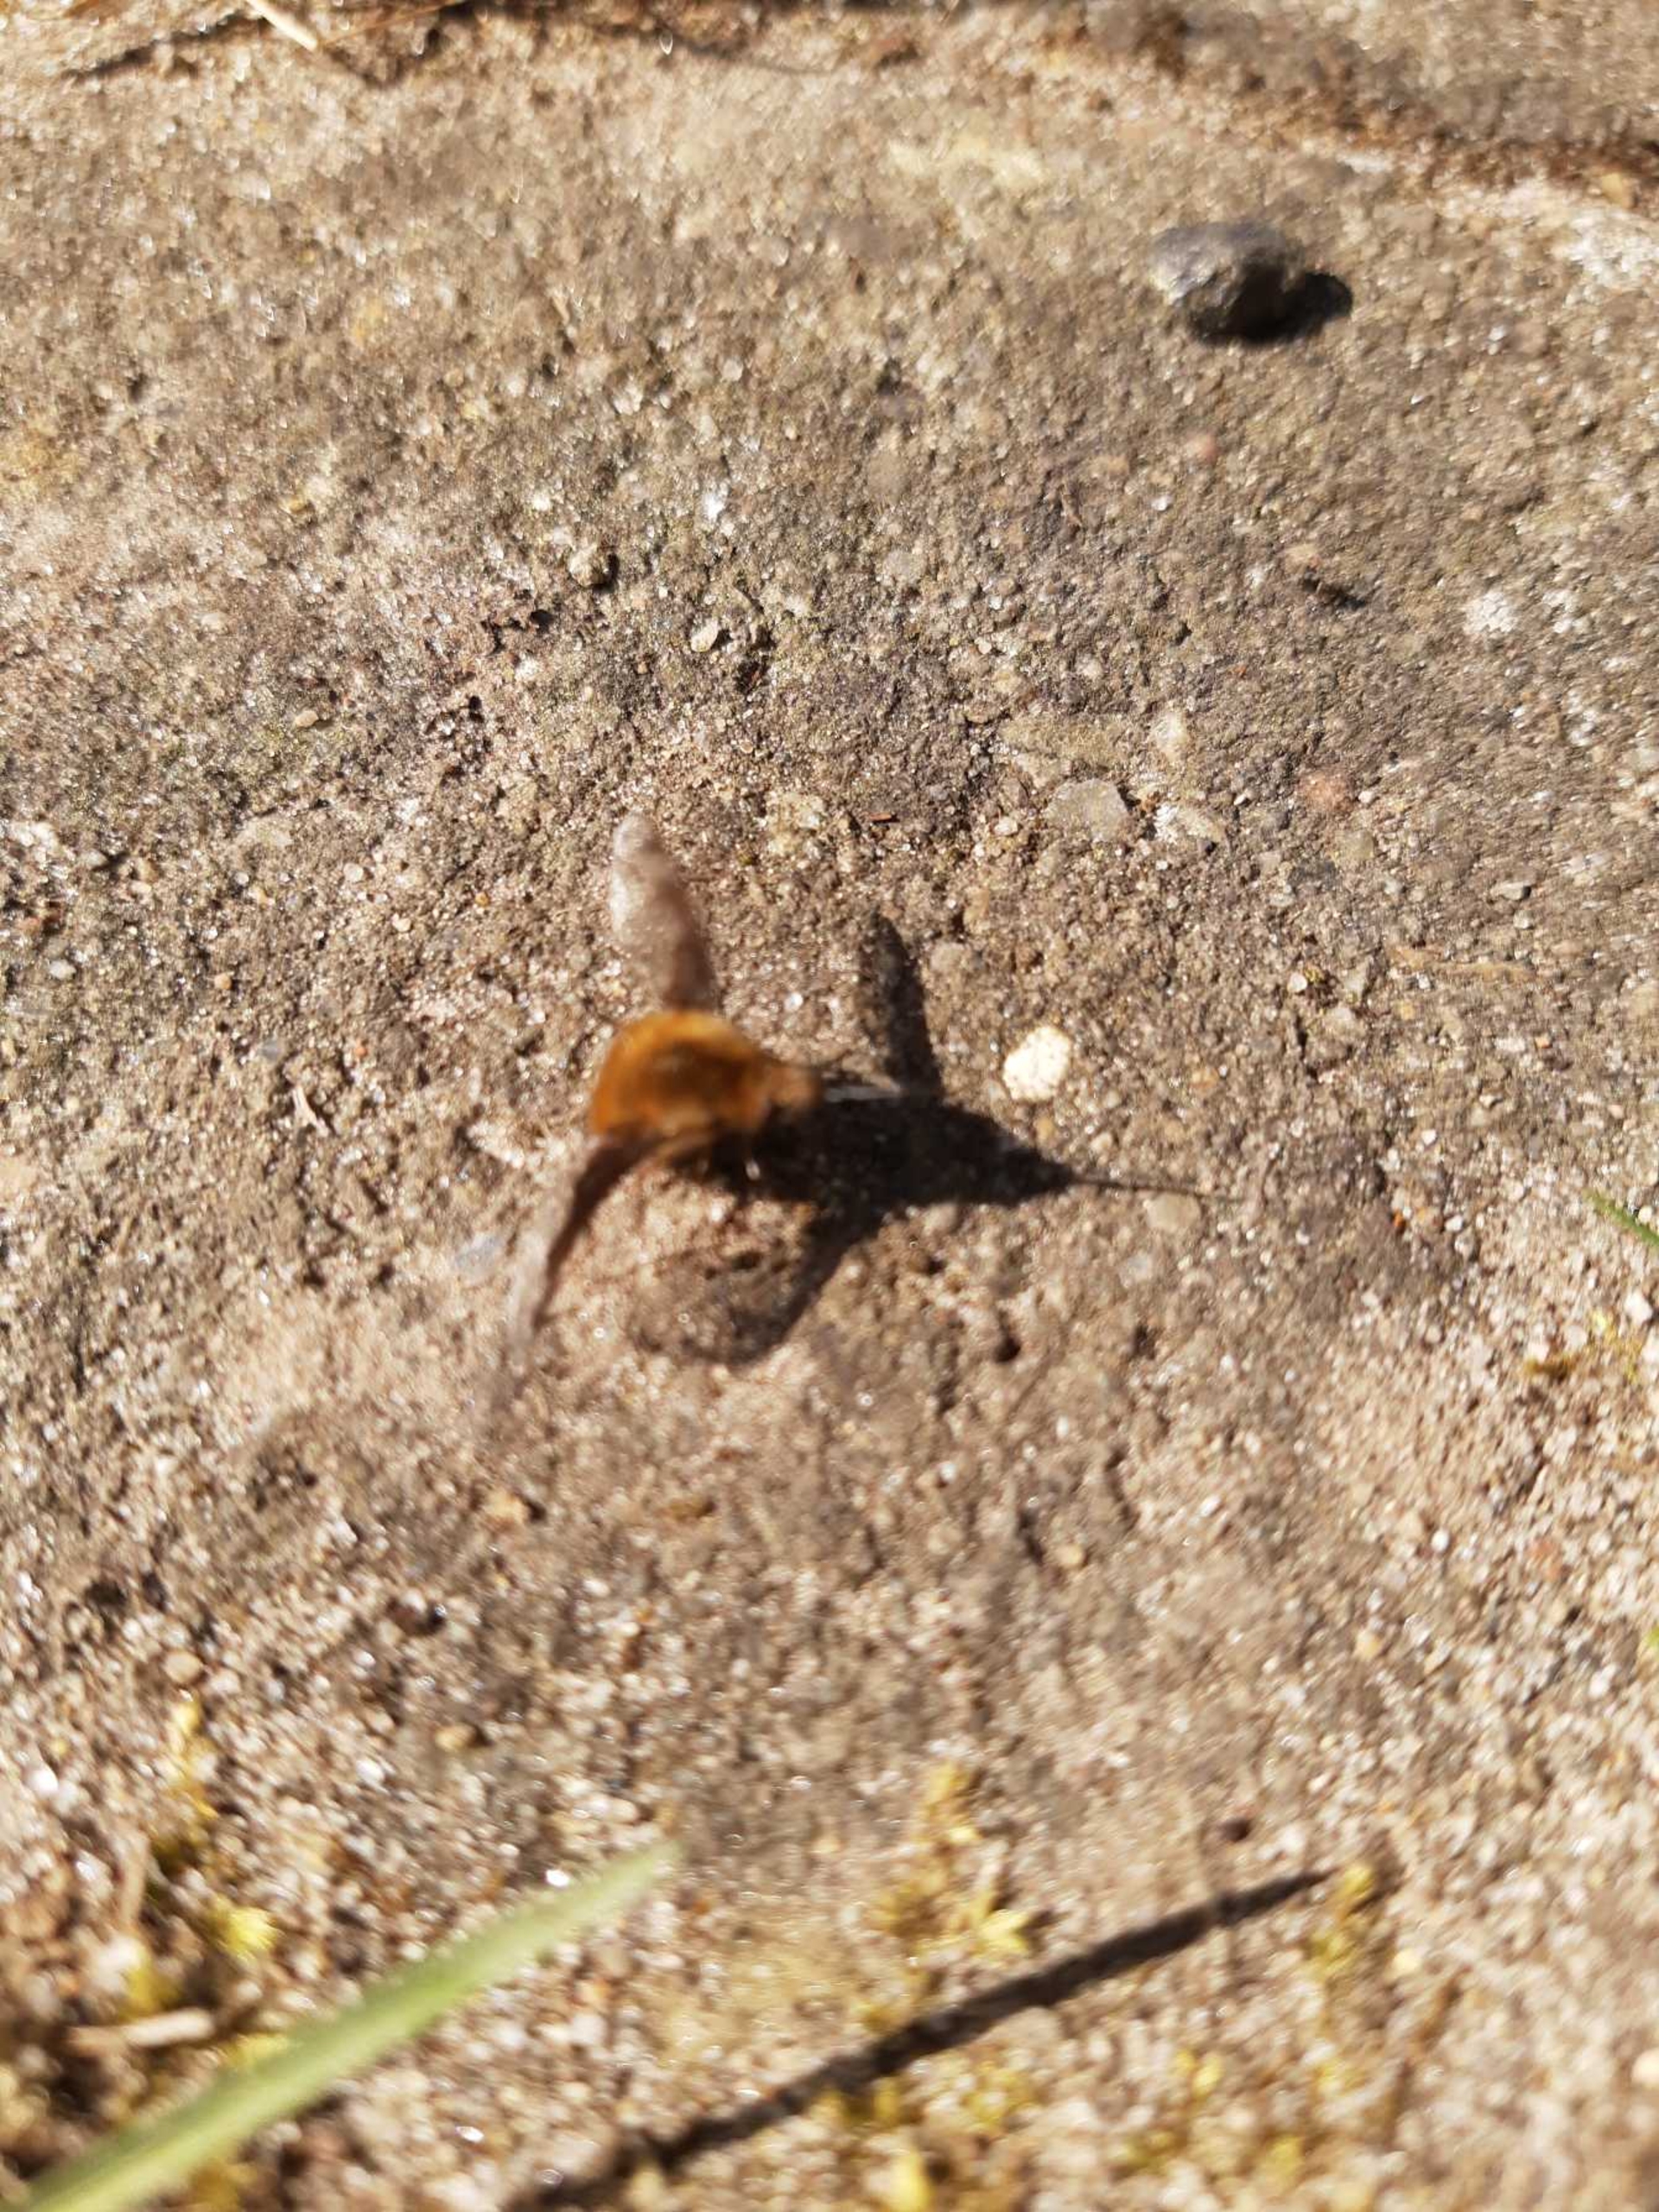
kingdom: Animalia
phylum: Arthropoda
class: Insecta
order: Diptera
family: Bombyliidae
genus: Bombylius
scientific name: Bombylius major
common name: Stor humleflue
